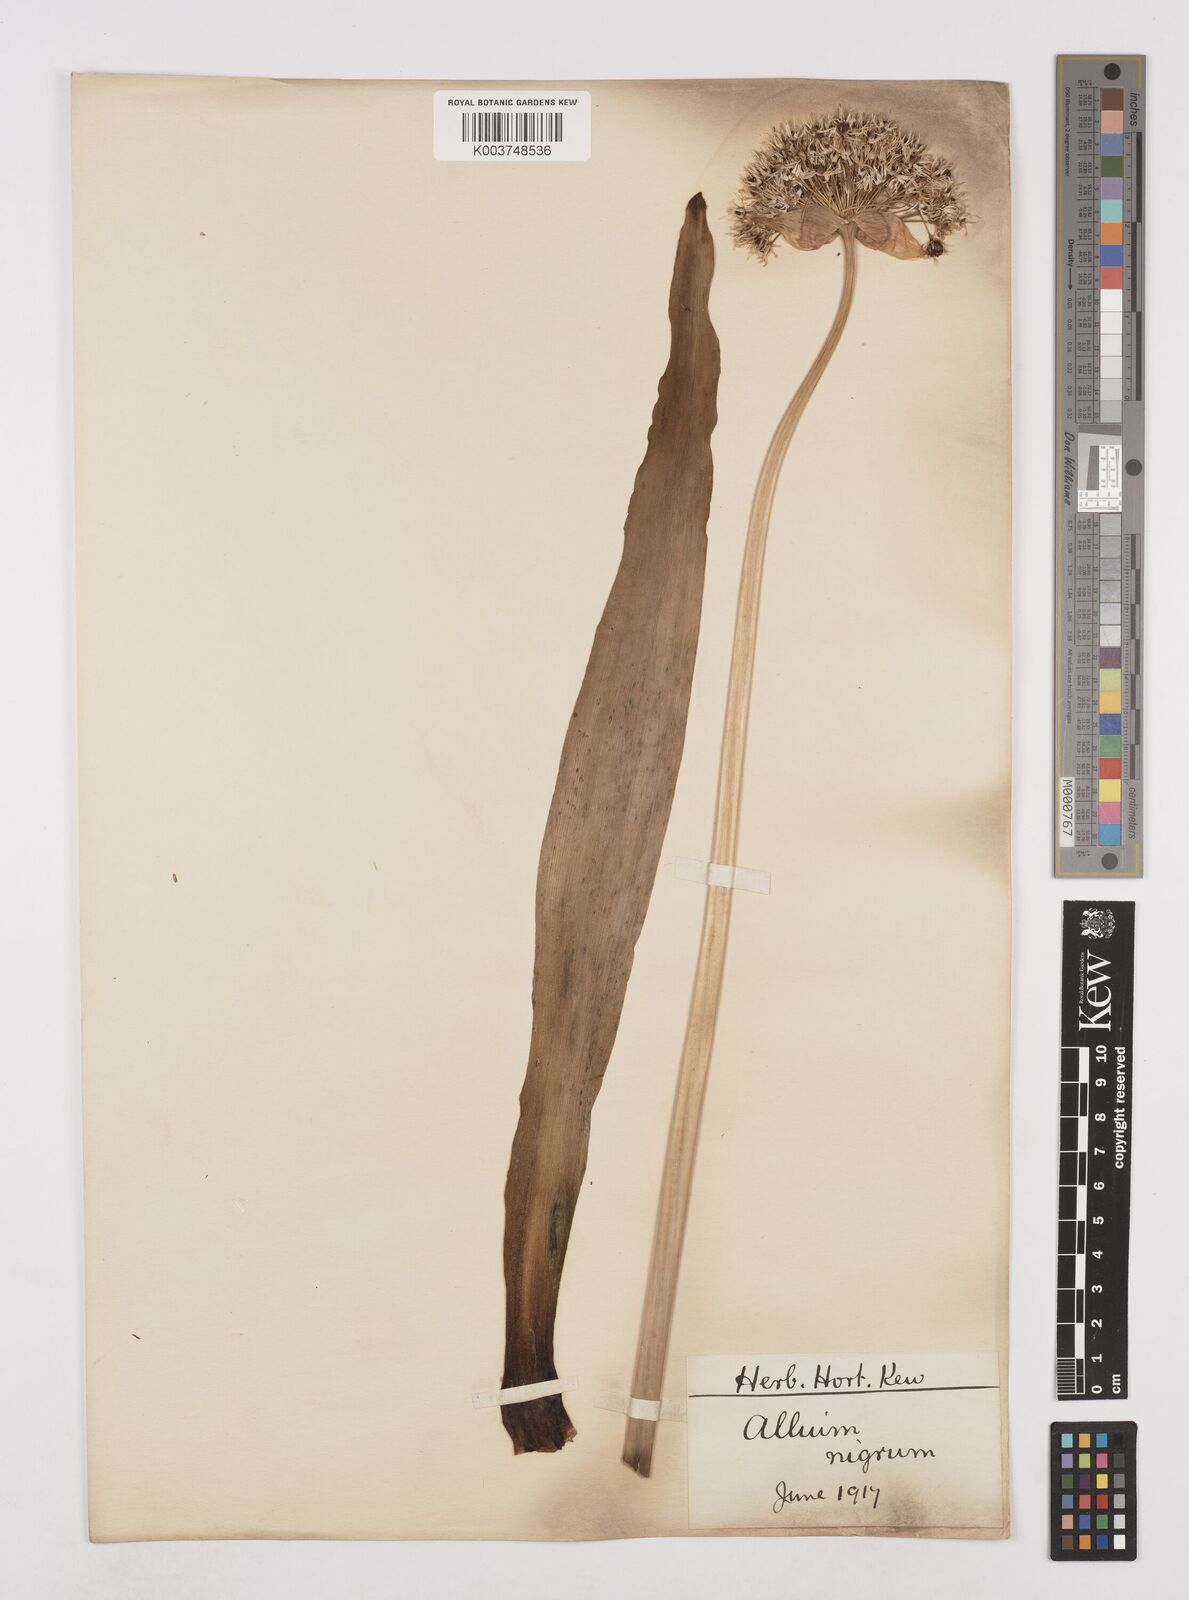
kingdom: Plantae
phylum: Tracheophyta
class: Liliopsida
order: Asparagales
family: Amaryllidaceae
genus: Allium
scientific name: Allium nigrum
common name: Black garlic
